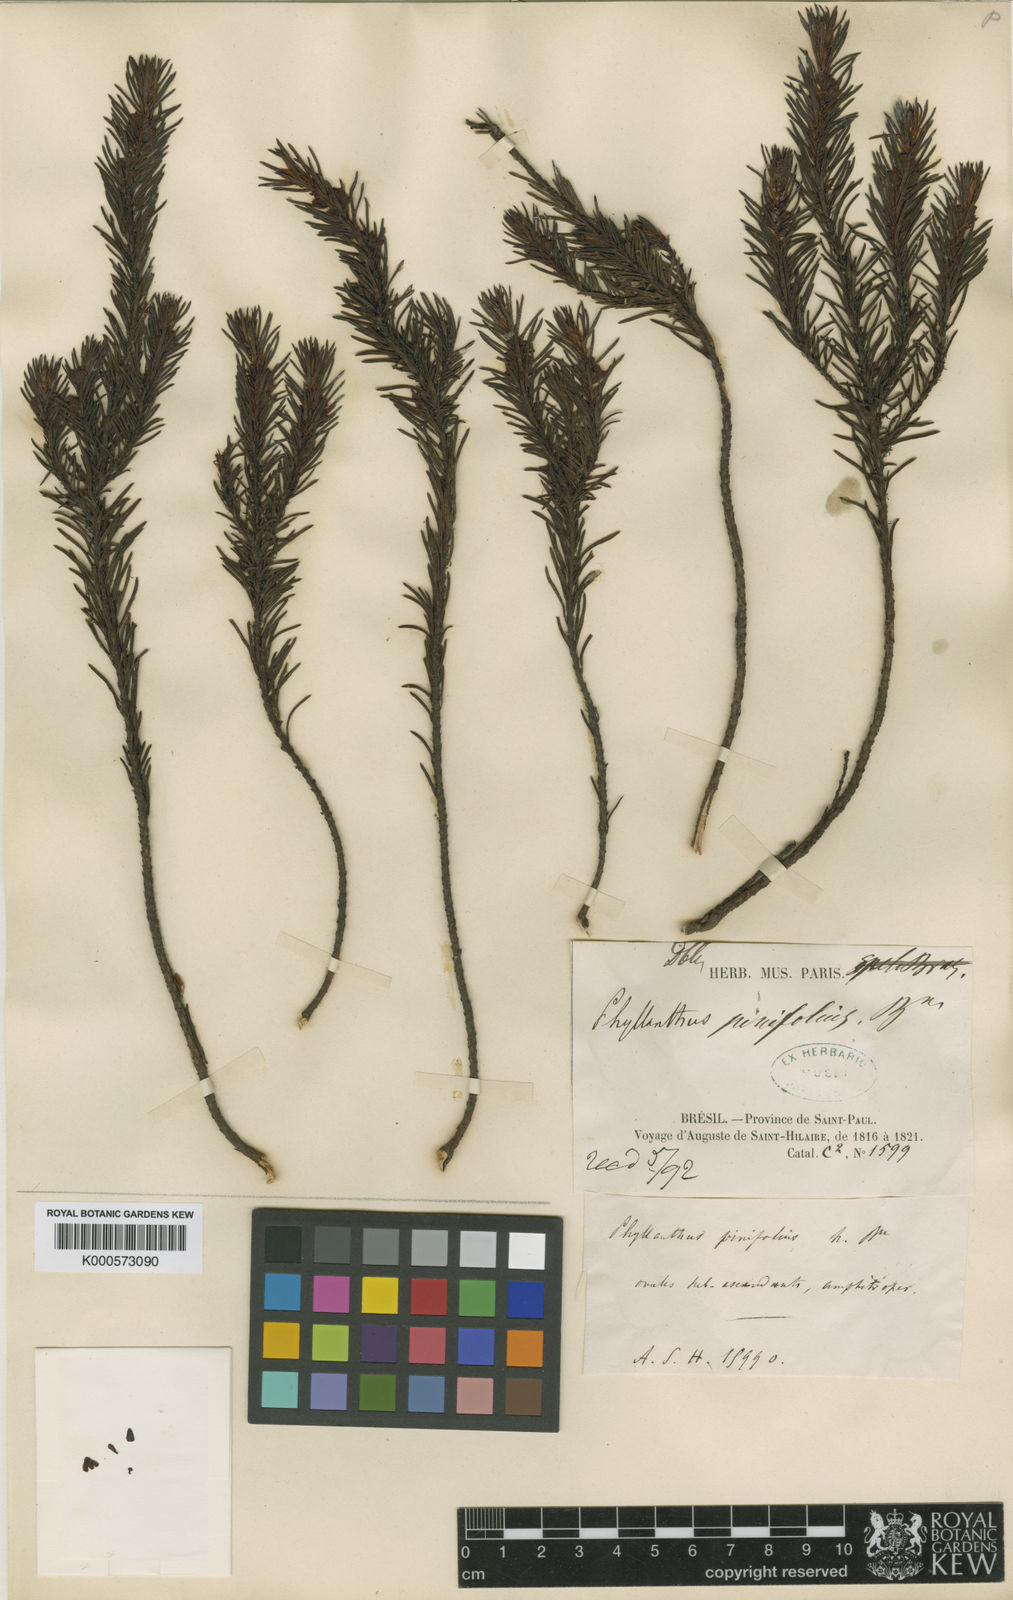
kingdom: Plantae
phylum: Tracheophyta
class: Magnoliopsida
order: Malpighiales
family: Phyllanthaceae
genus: Phyllanthus
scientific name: Phyllanthus pinifolius
